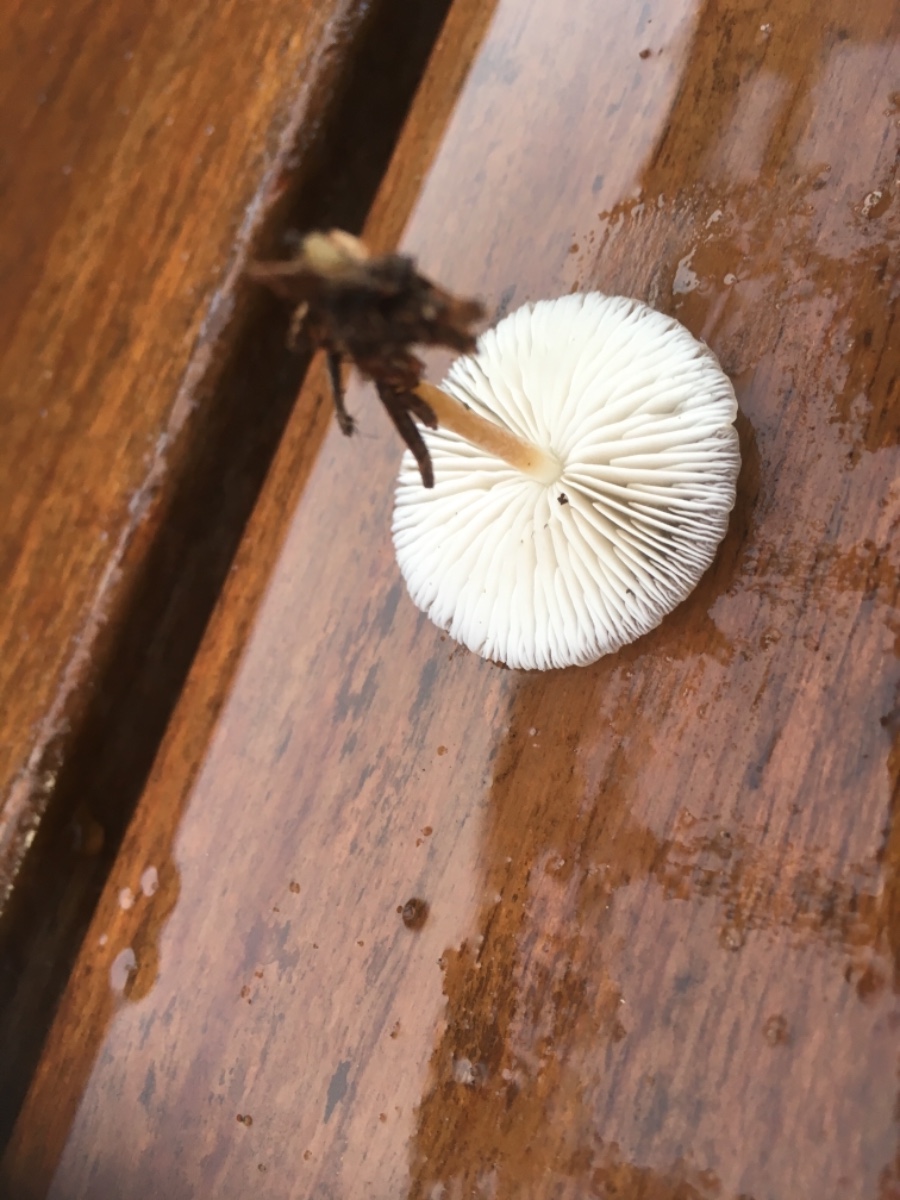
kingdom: Fungi
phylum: Basidiomycota
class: Agaricomycetes
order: Agaricales
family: Physalacriaceae
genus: Strobilurus
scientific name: Strobilurus esculentus
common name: gran-koglehat
